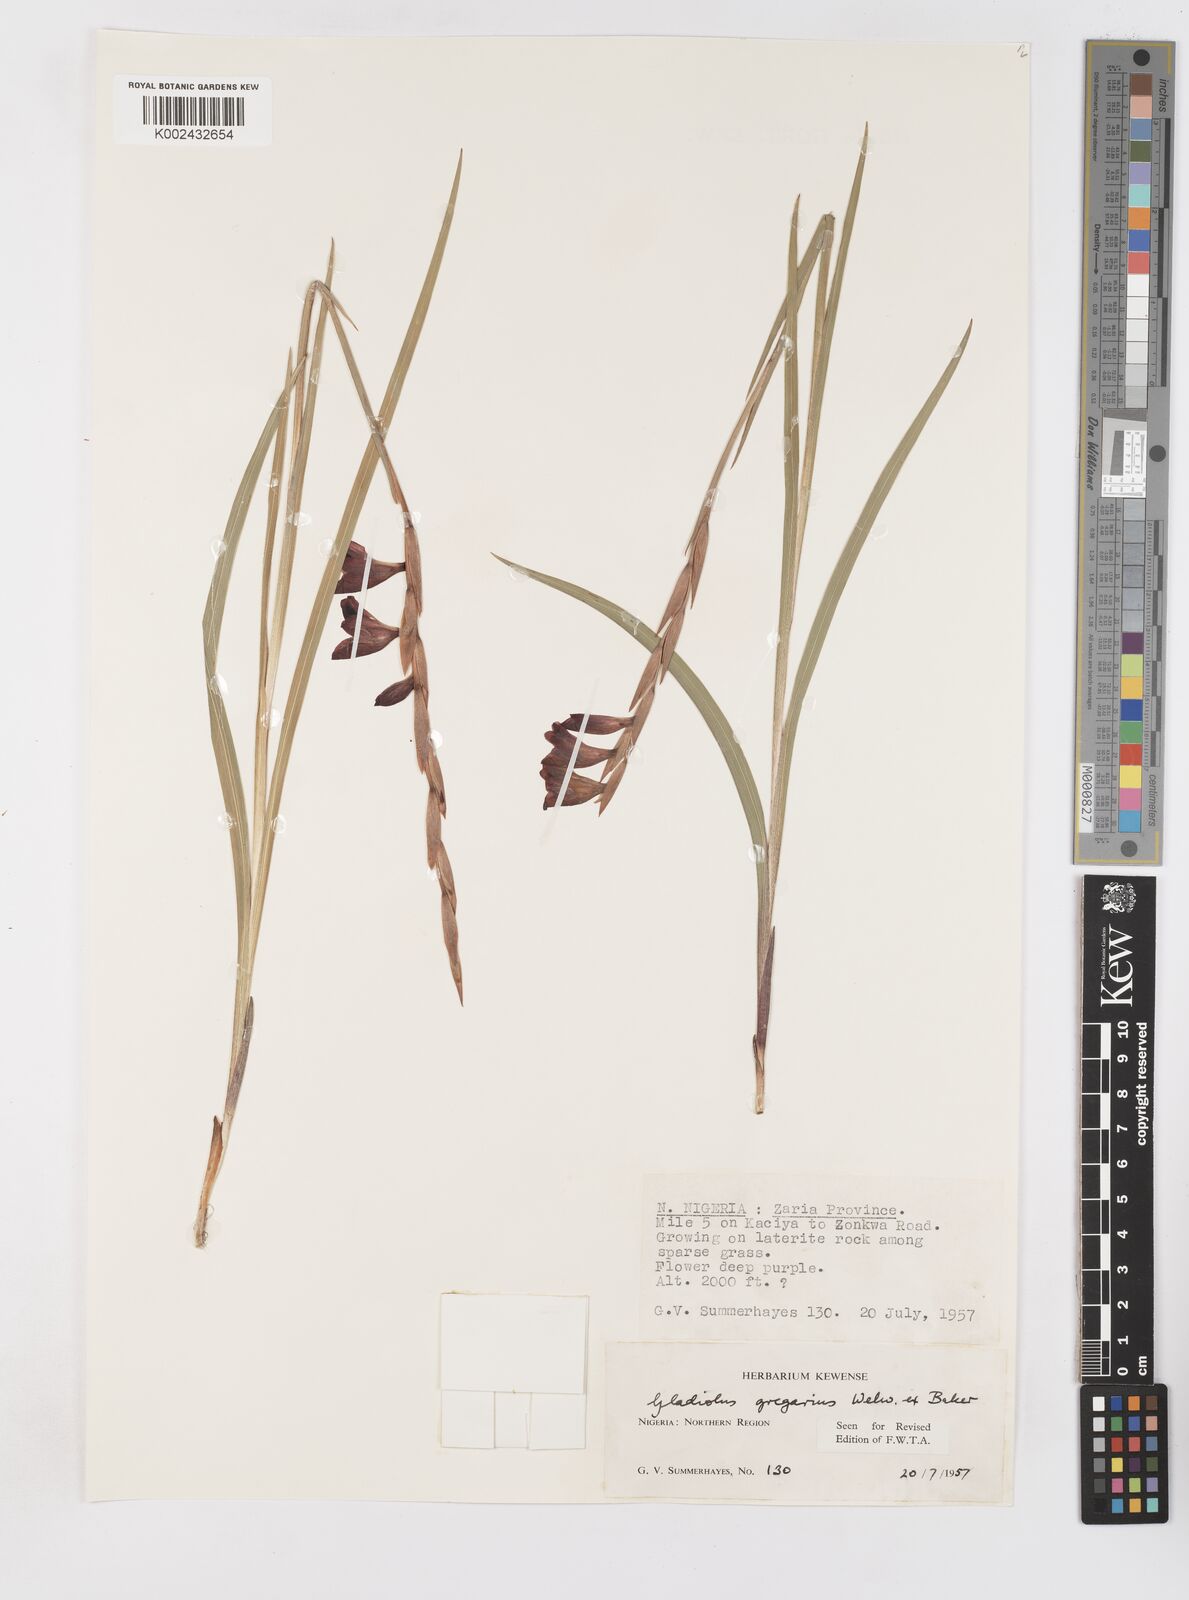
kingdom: Plantae
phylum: Tracheophyta
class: Liliopsida
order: Asparagales
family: Iridaceae
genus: Gladiolus
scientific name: Gladiolus gregarius
